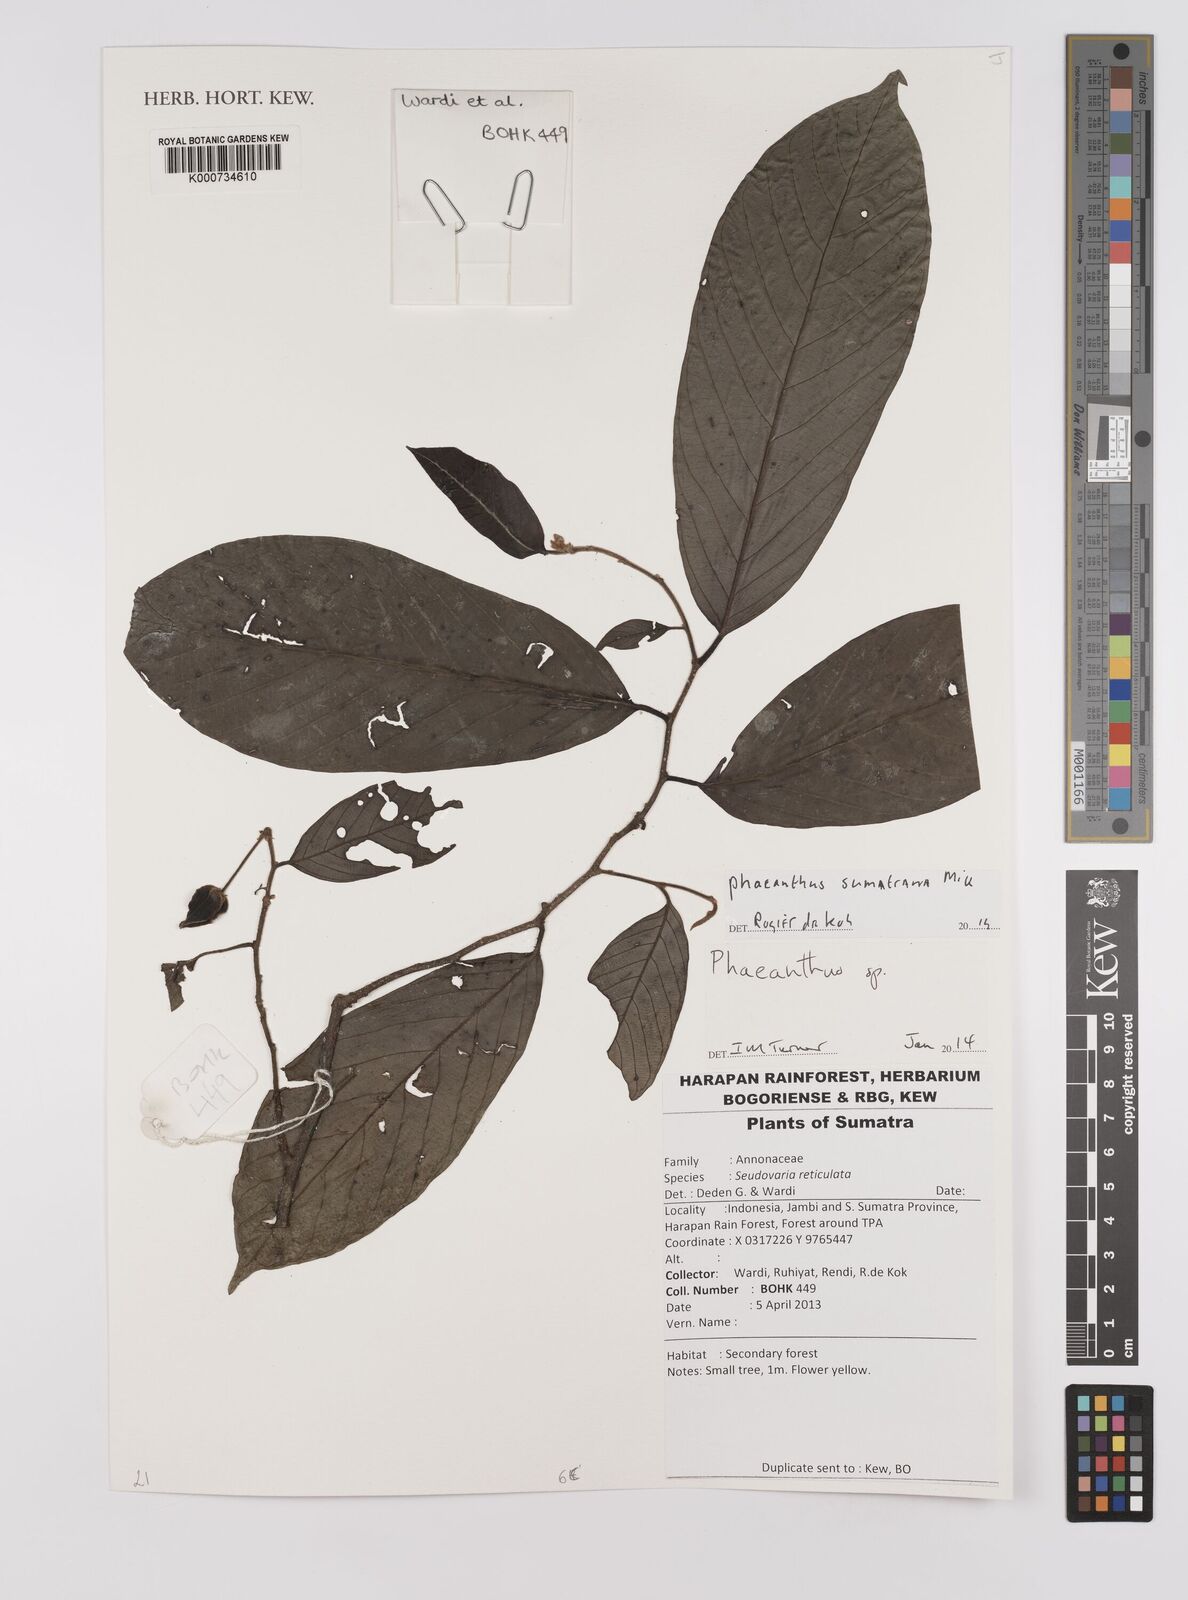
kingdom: Plantae
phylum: Tracheophyta
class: Magnoliopsida
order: Magnoliales
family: Annonaceae
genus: Phaeanthus
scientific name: Phaeanthus sumatrana
